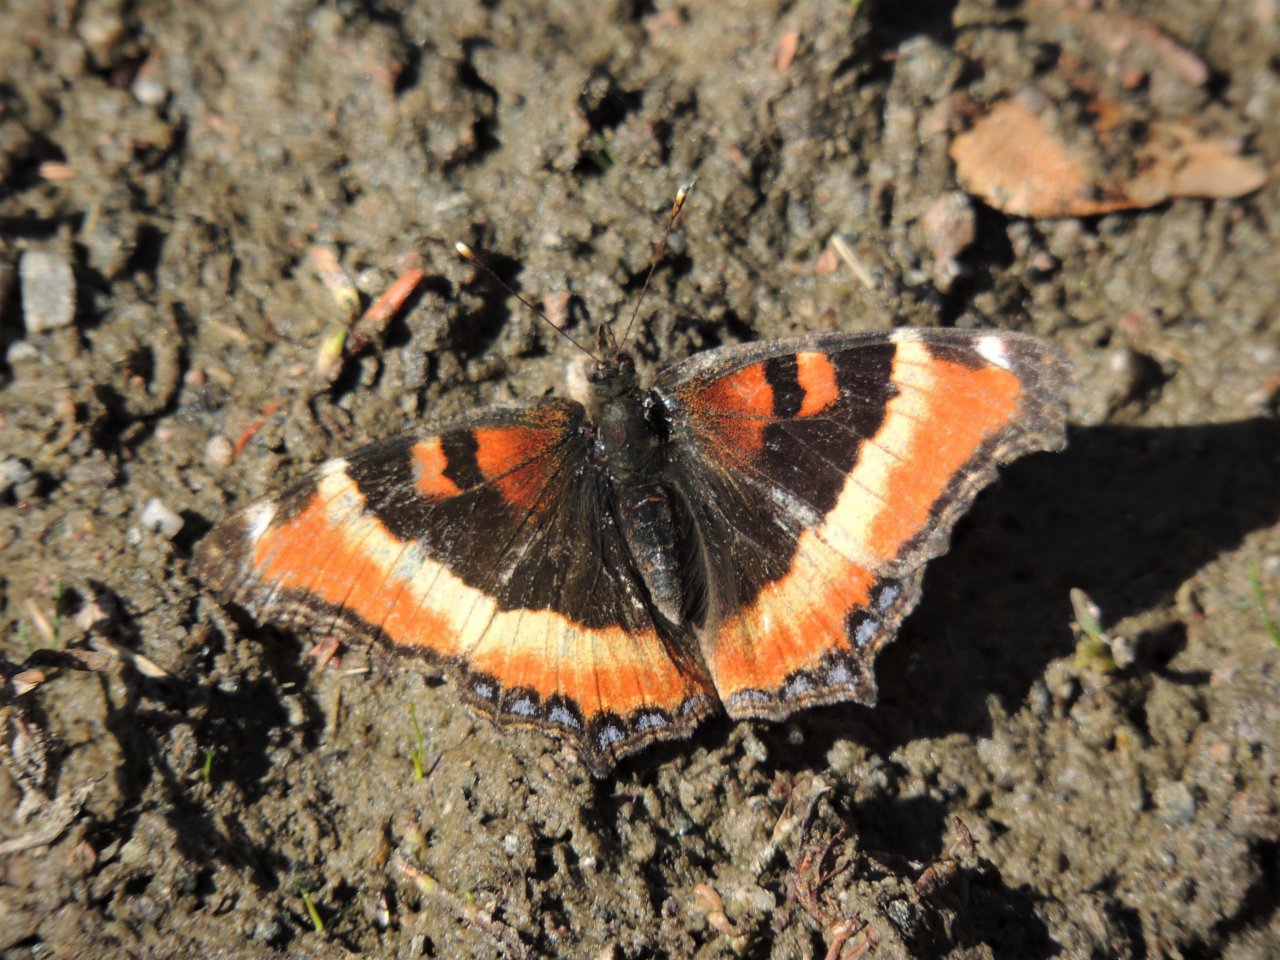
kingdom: Animalia
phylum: Arthropoda
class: Insecta
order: Lepidoptera
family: Nymphalidae
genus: Aglais
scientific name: Aglais milberti
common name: Milbert's Tortoiseshell
